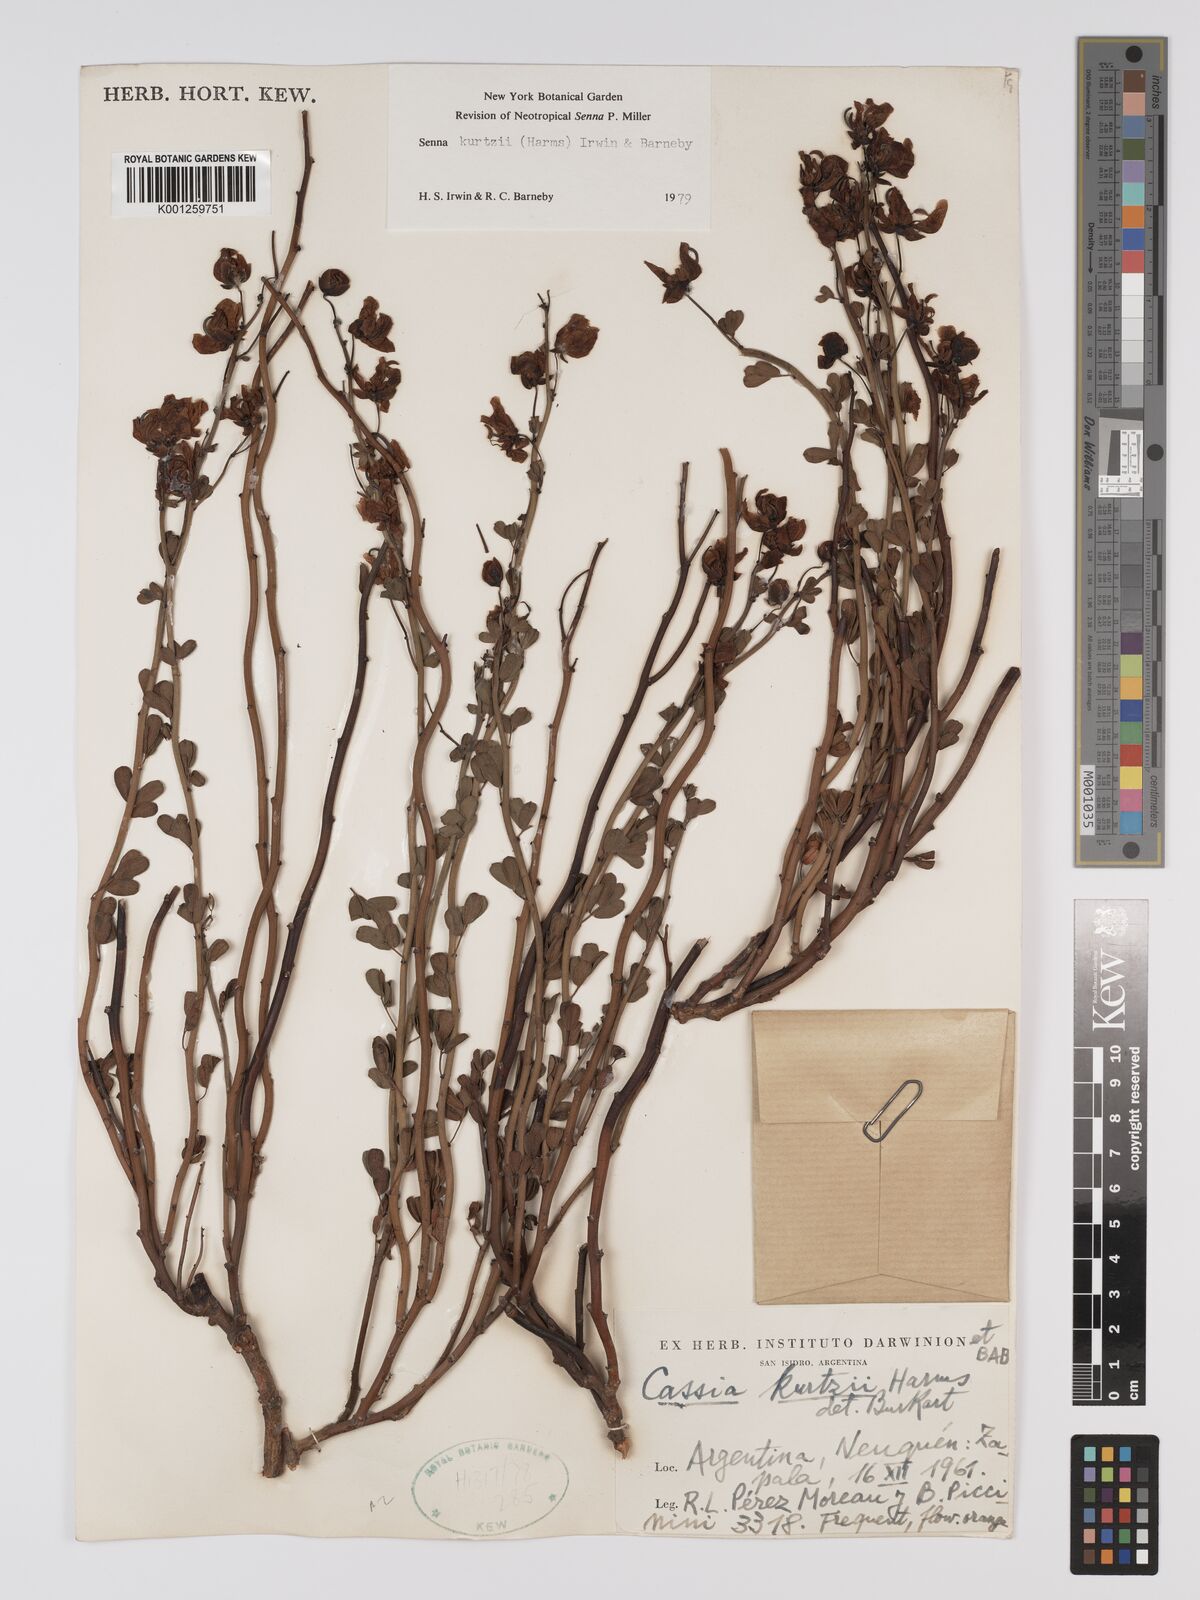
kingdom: Plantae
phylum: Tracheophyta
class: Magnoliopsida
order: Fabales
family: Fabaceae
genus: Senna
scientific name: Senna kurtzii
